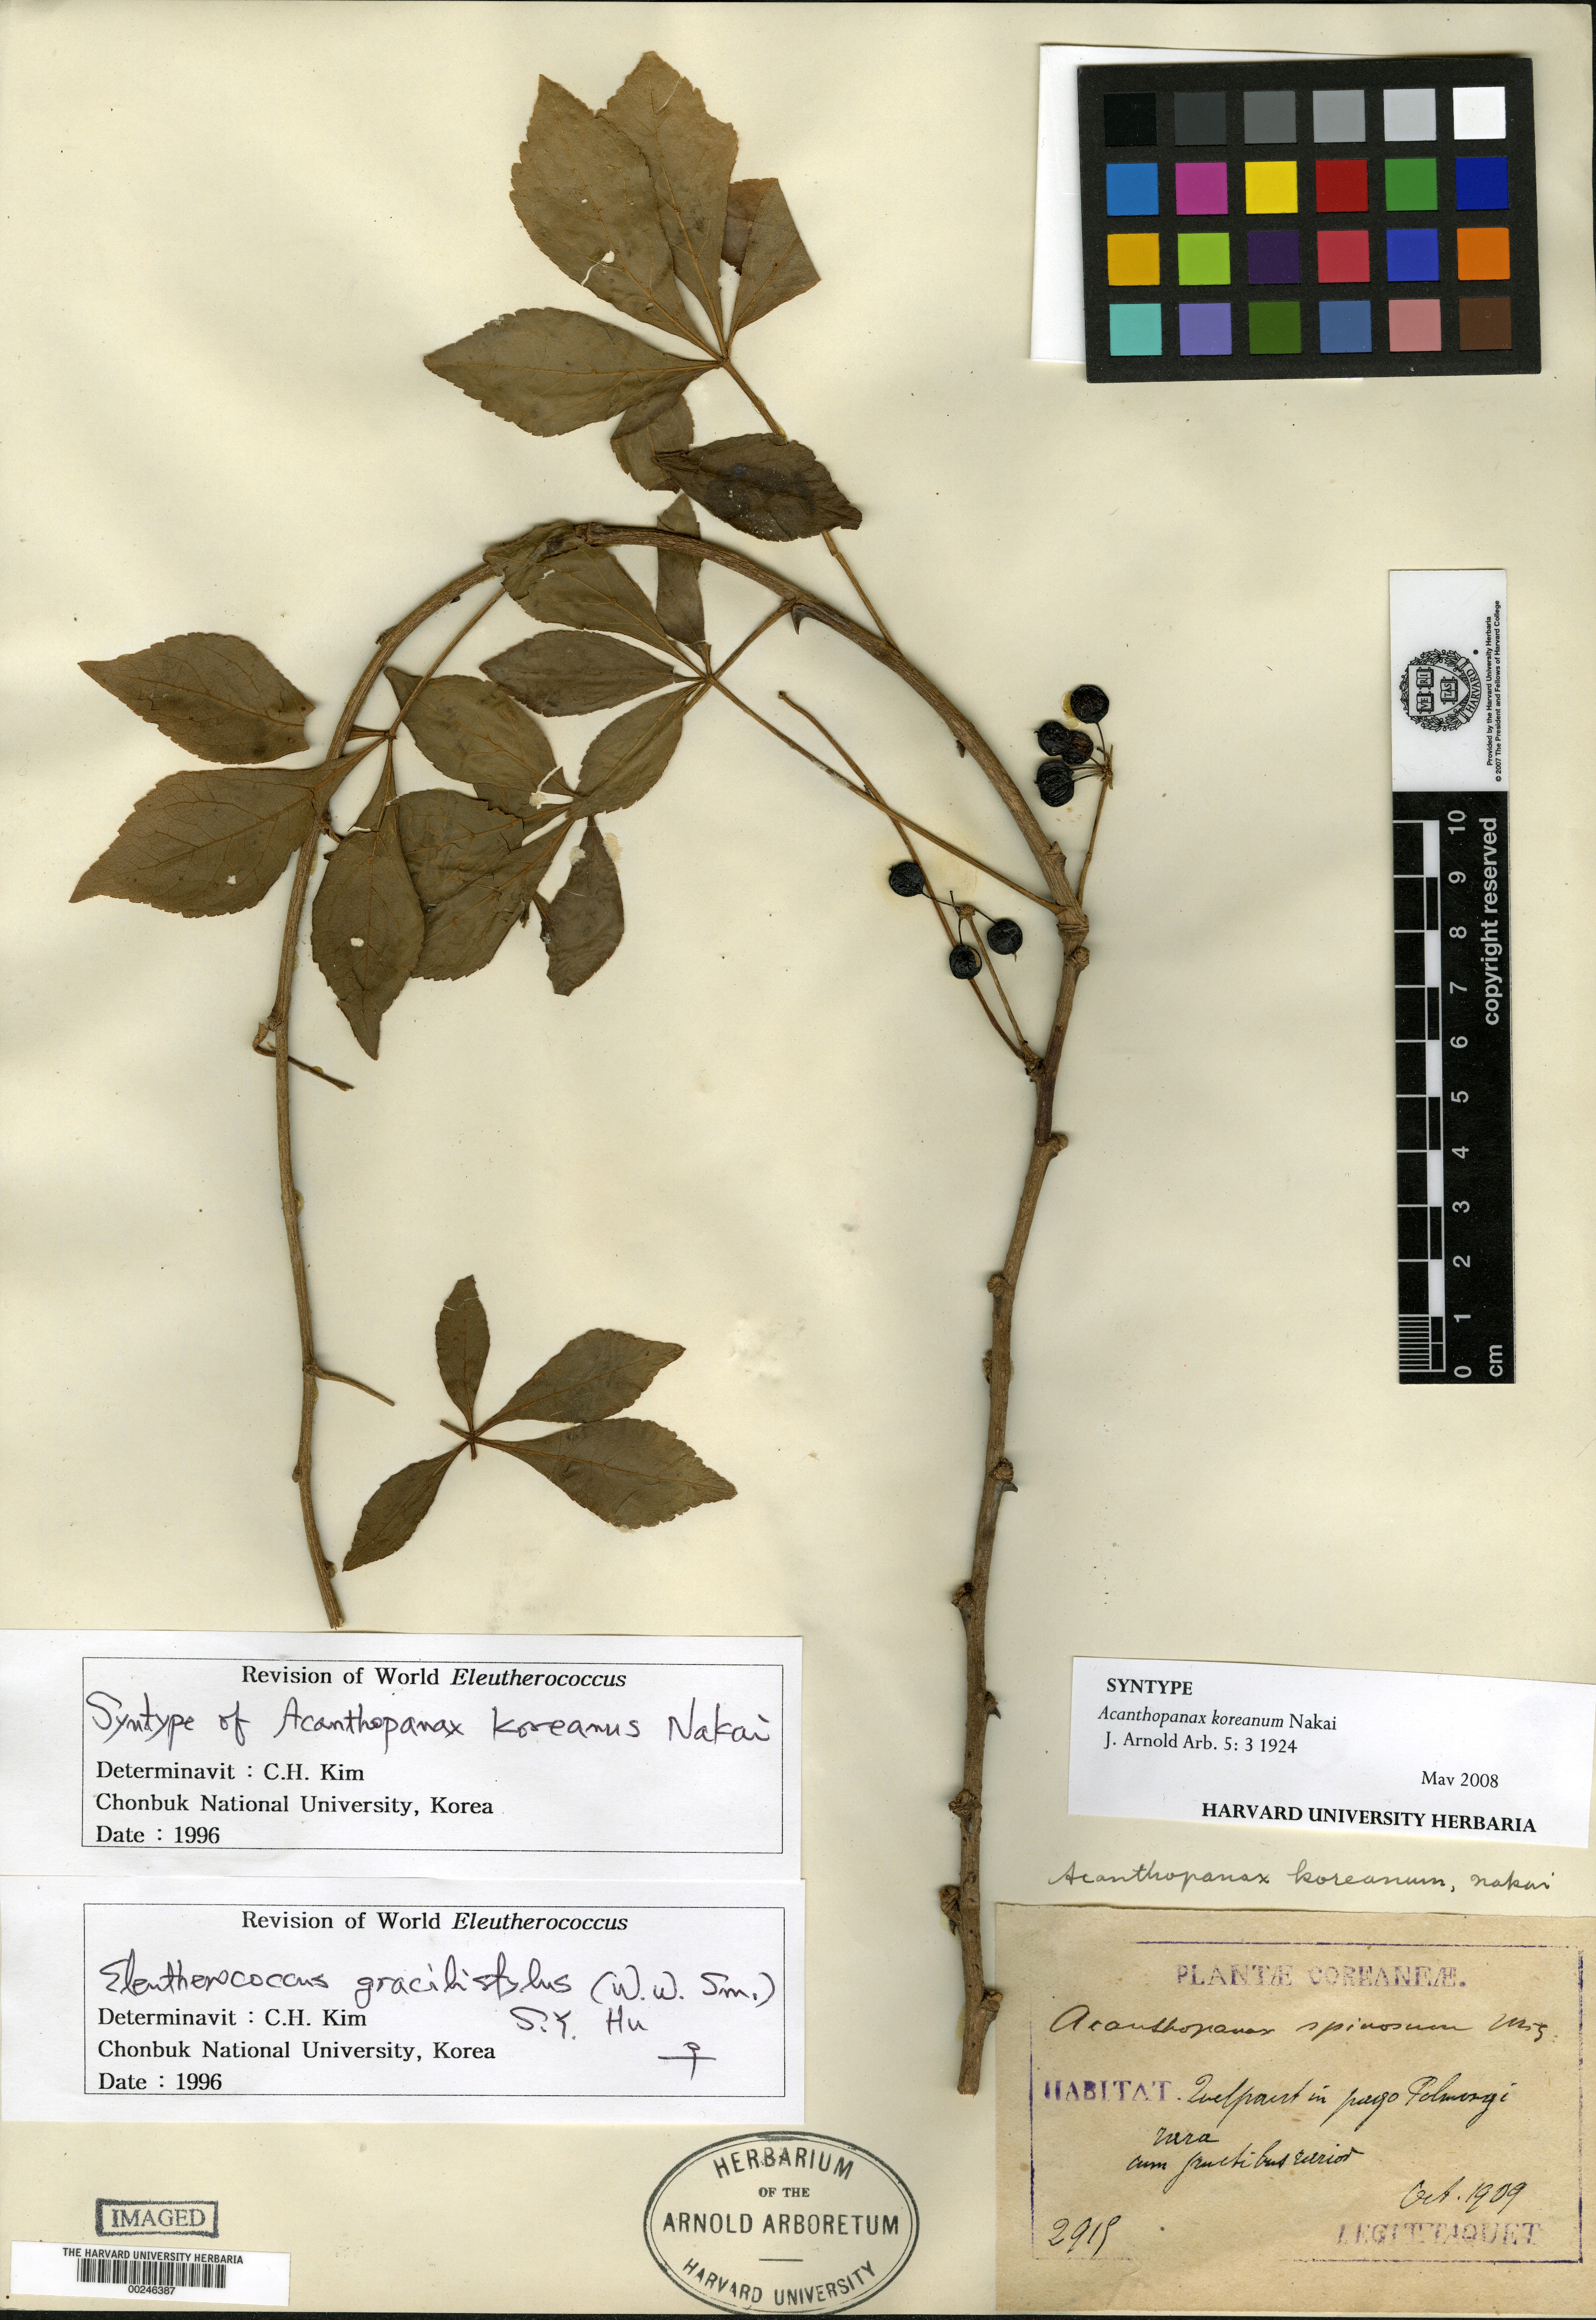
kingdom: Plantae
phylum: Tracheophyta
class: Magnoliopsida
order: Apiales
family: Araliaceae
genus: Eleutherococcus
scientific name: Eleutherococcus nodiflorus
